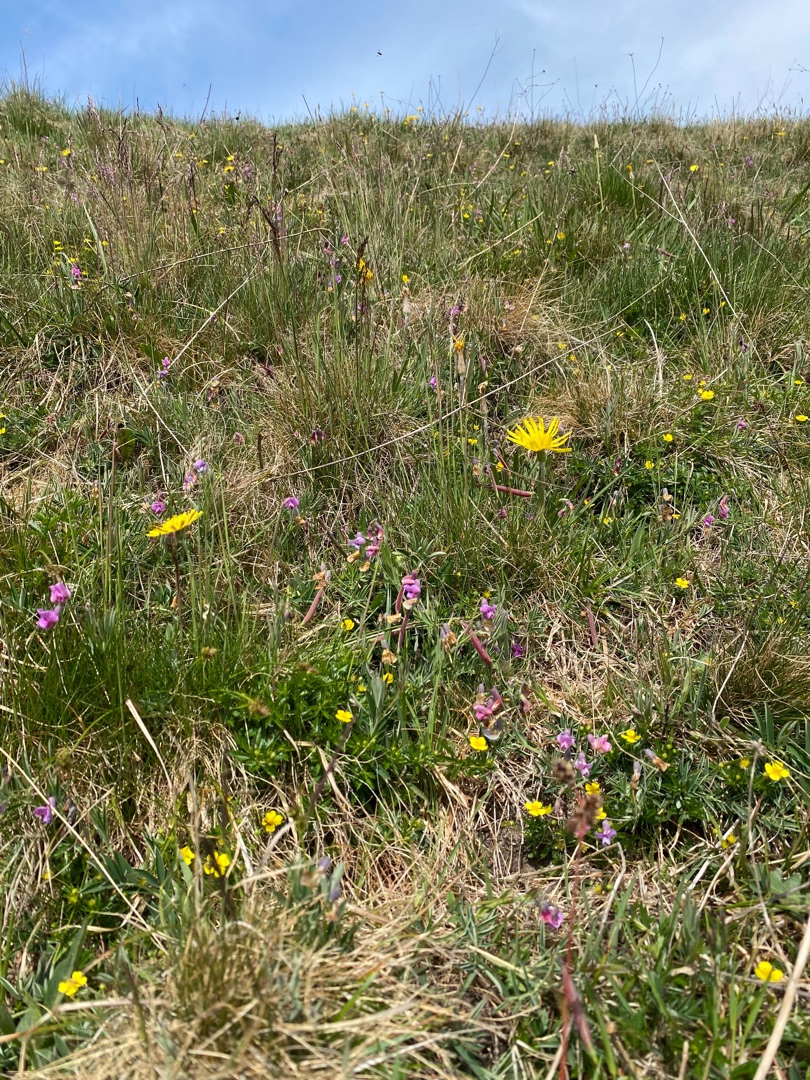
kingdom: Plantae
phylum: Tracheophyta
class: Magnoliopsida
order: Asterales
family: Asteraceae
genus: Scorzonera
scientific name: Scorzonera humilis
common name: Lav skorsoner
